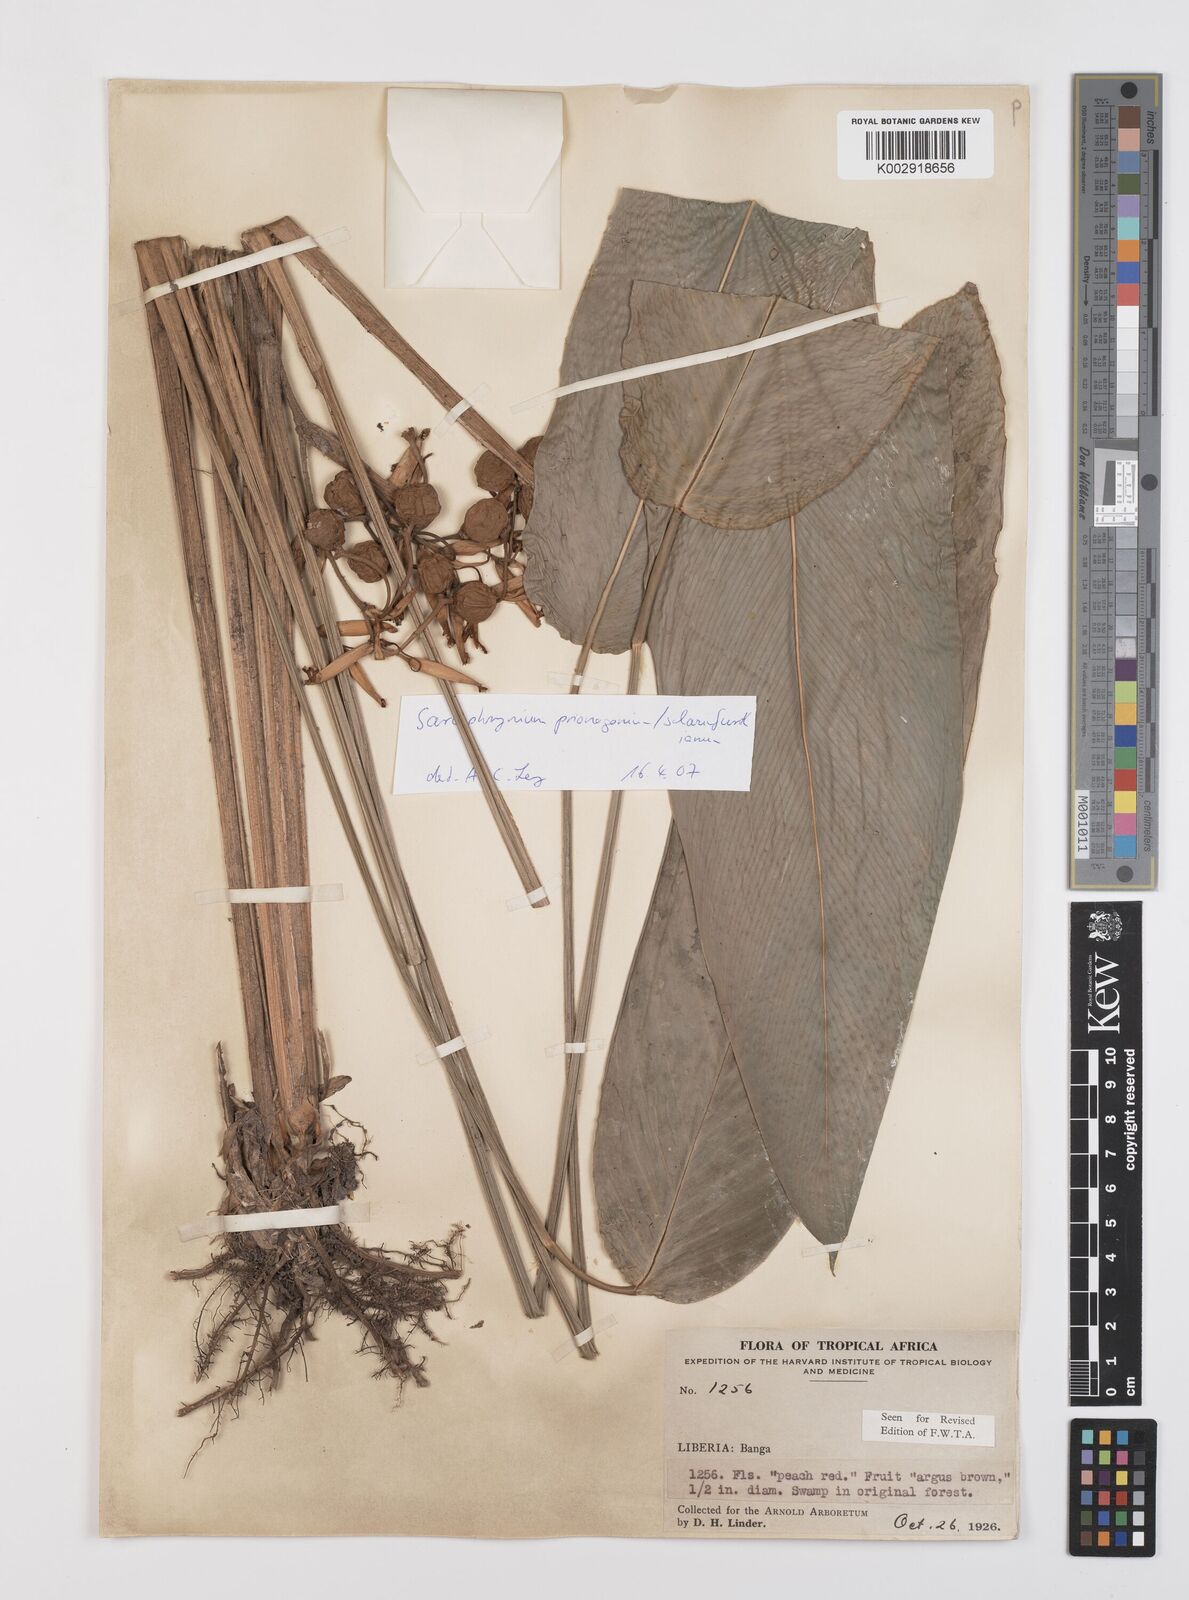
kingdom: Plantae
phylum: Tracheophyta
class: Liliopsida
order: Zingiberales
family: Marantaceae
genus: Sarcophrynium
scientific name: Sarcophrynium prionogonium
